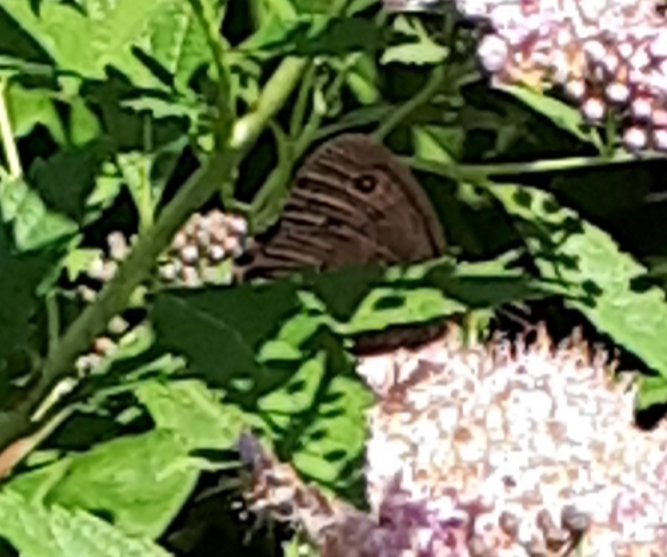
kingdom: Animalia
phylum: Arthropoda
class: Insecta
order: Lepidoptera
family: Nymphalidae
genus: Cercyonis
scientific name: Cercyonis pegala
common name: Common Wood-Nymph
